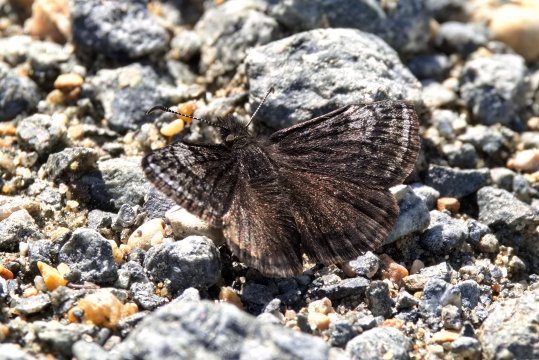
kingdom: Animalia
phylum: Arthropoda
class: Insecta
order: Lepidoptera
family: Hesperiidae
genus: Erynnis
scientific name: Erynnis icelus
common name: Dreamy Duskywing
